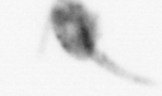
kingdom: Animalia
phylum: Annelida
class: Polychaeta
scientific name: Polychaeta
